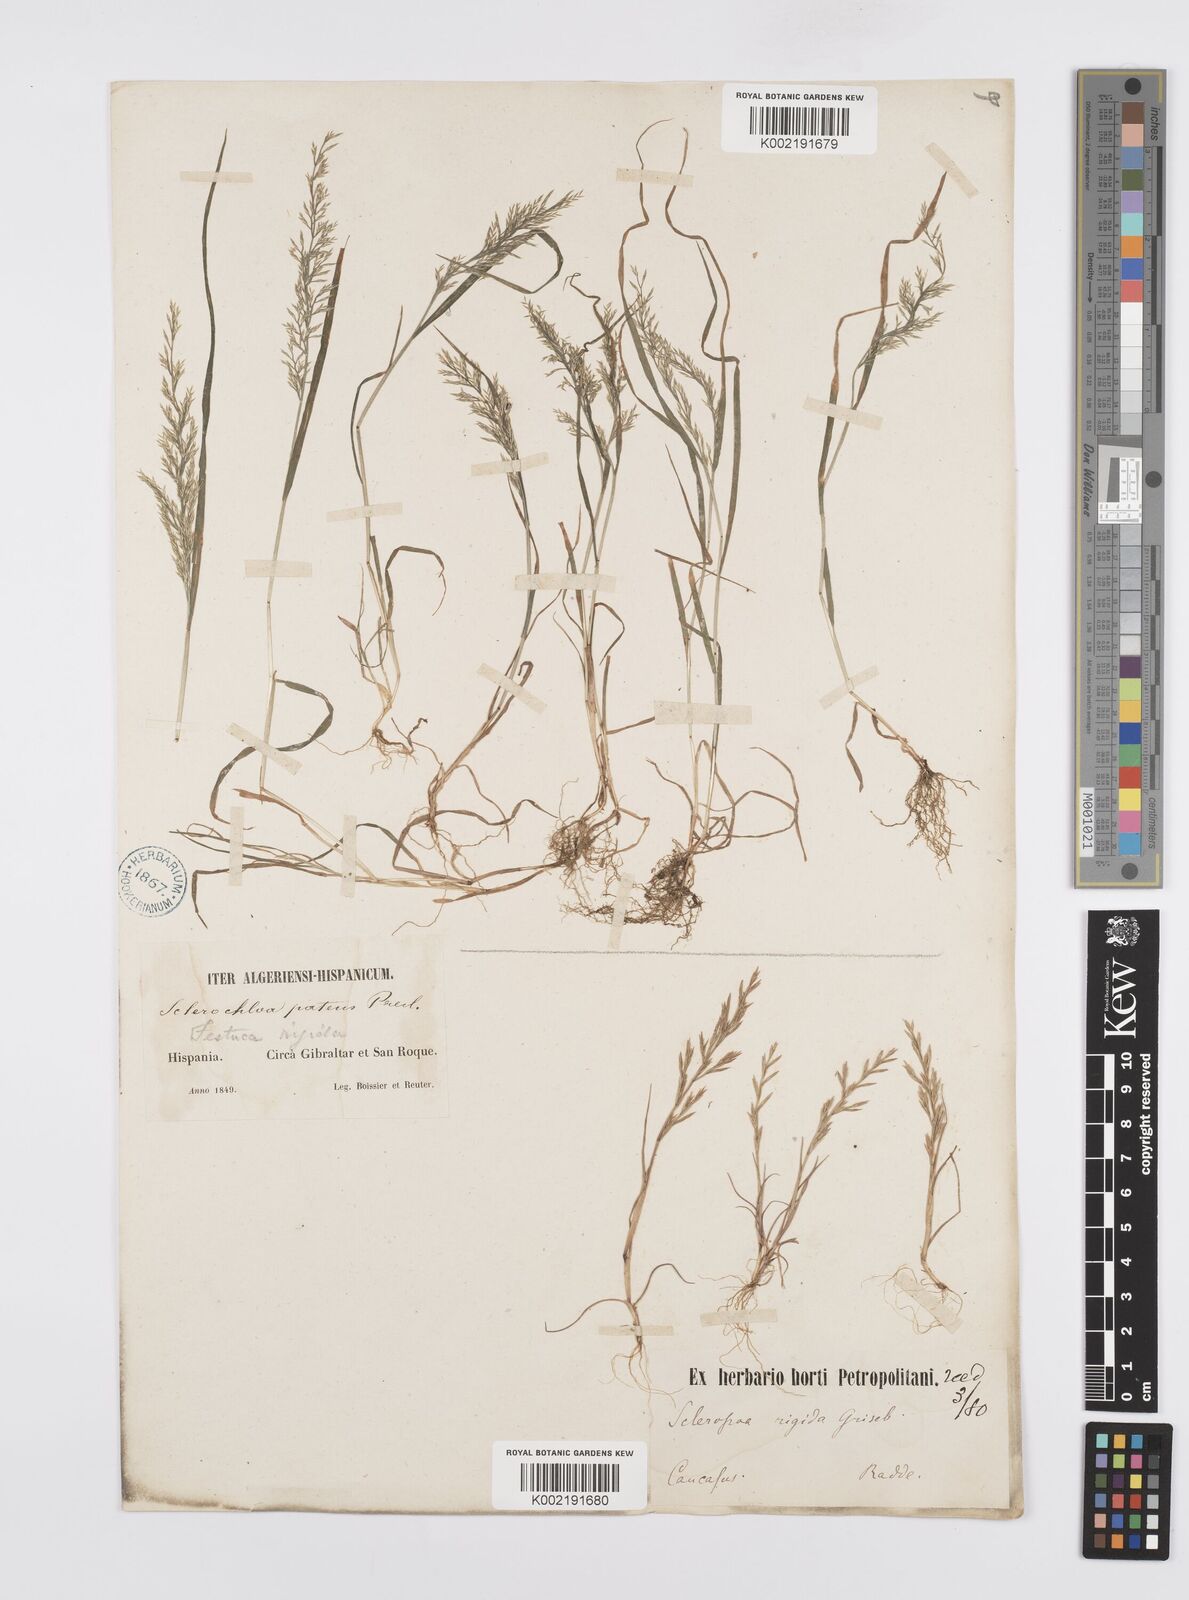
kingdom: Plantae
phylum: Tracheophyta
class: Liliopsida
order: Poales
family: Poaceae
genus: Catapodium
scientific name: Catapodium rigidum
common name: Fern-grass
